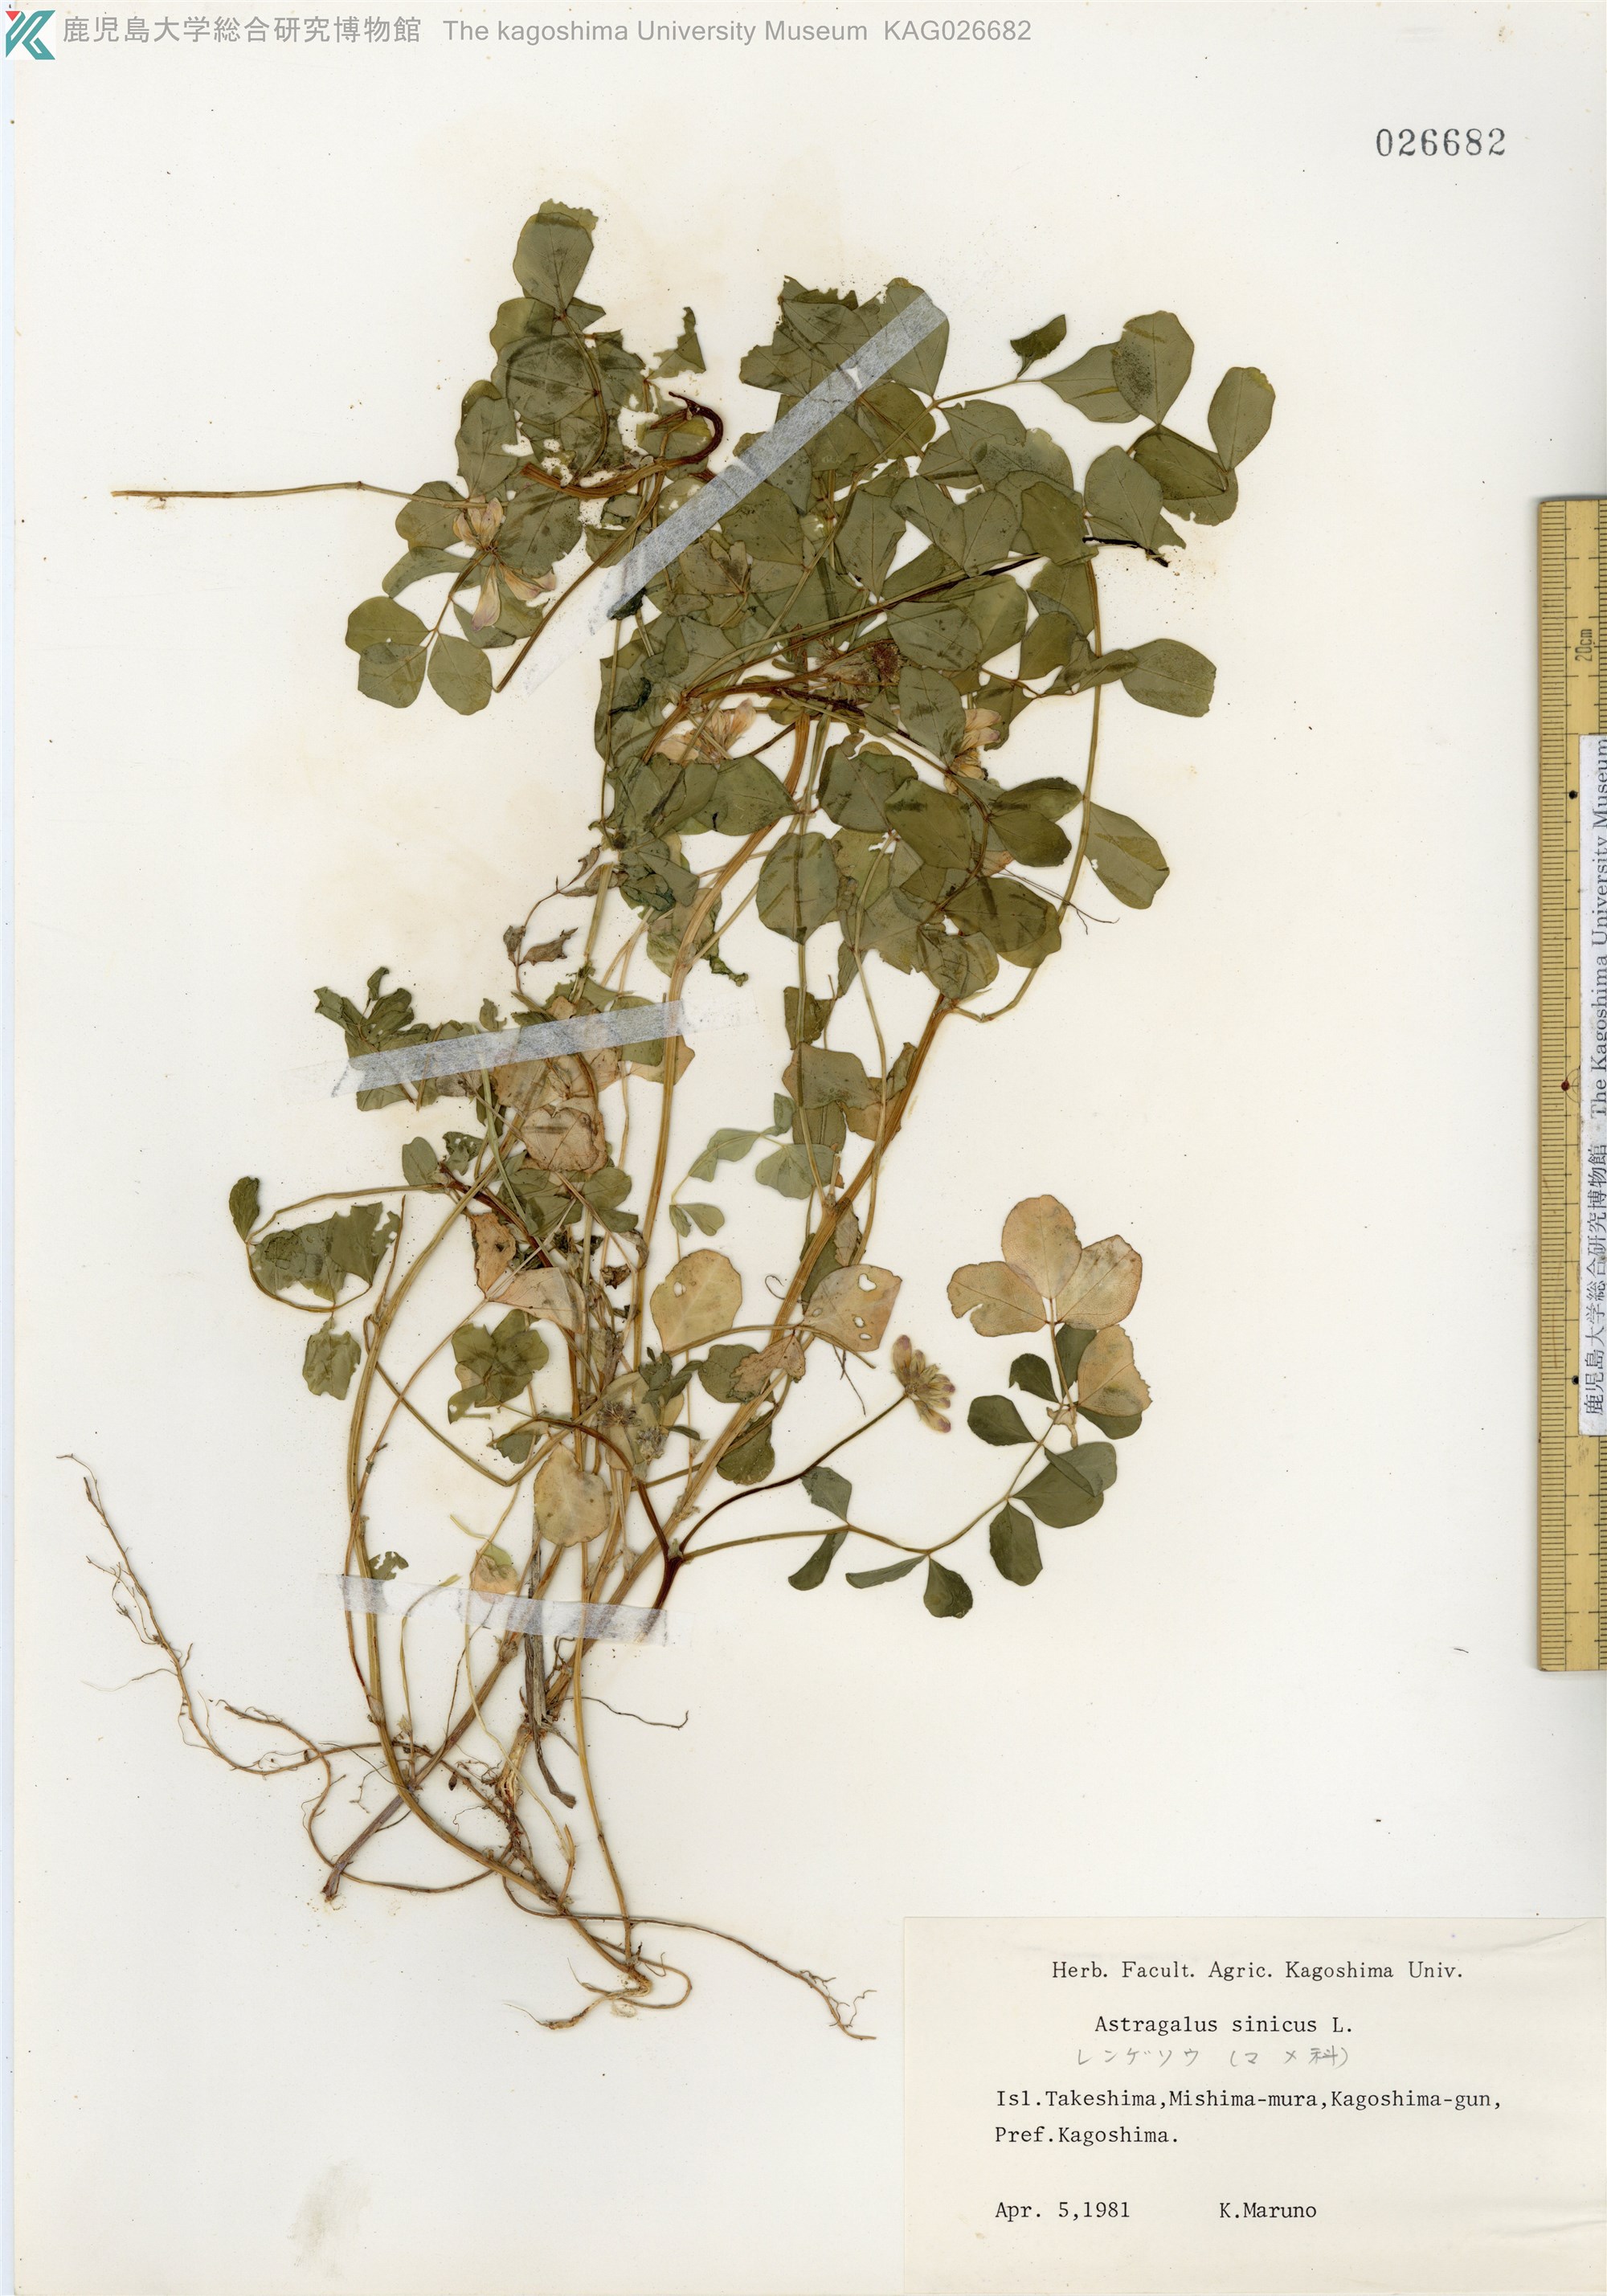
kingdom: Plantae
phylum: Tracheophyta
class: Magnoliopsida
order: Fabales
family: Fabaceae
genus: Astragalus
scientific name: Astragalus sinicus
